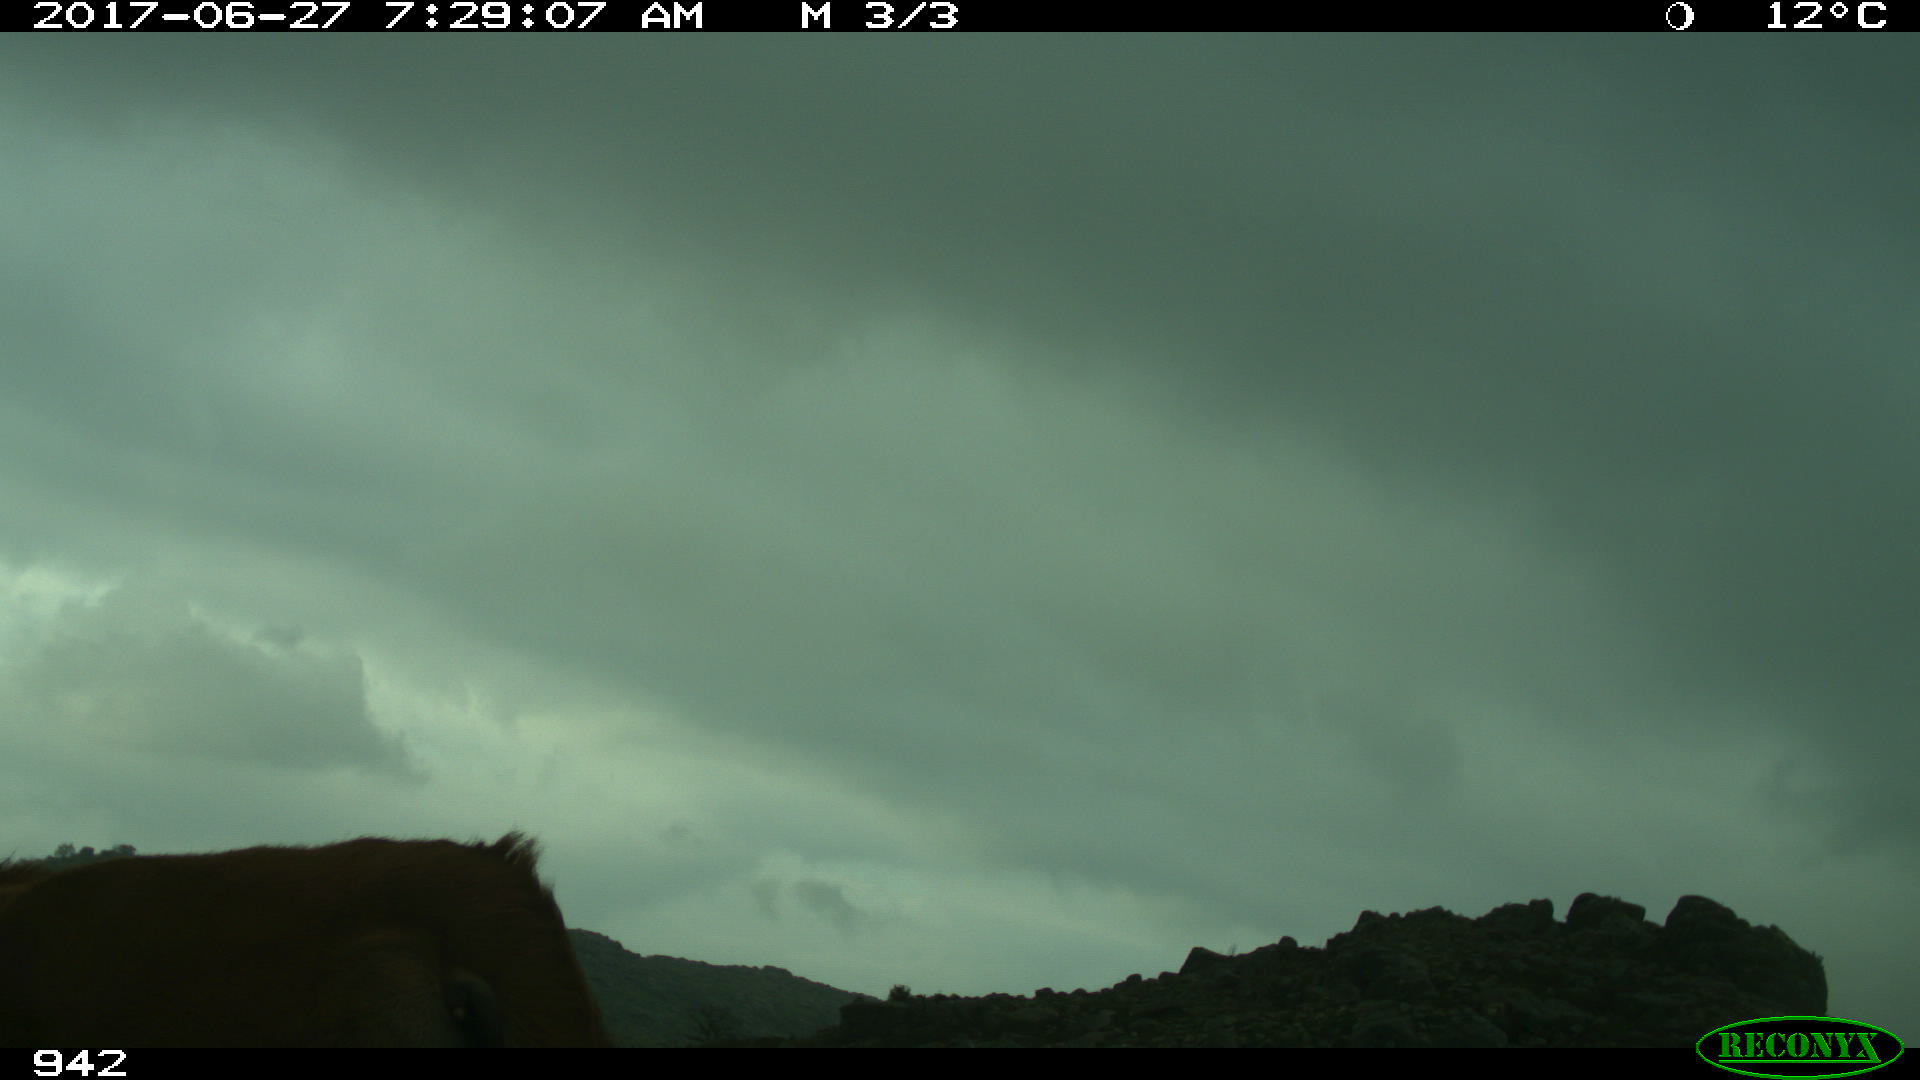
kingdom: Animalia
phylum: Chordata
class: Mammalia
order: Artiodactyla
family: Bovidae
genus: Bos
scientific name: Bos taurus
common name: Domesticated cattle
